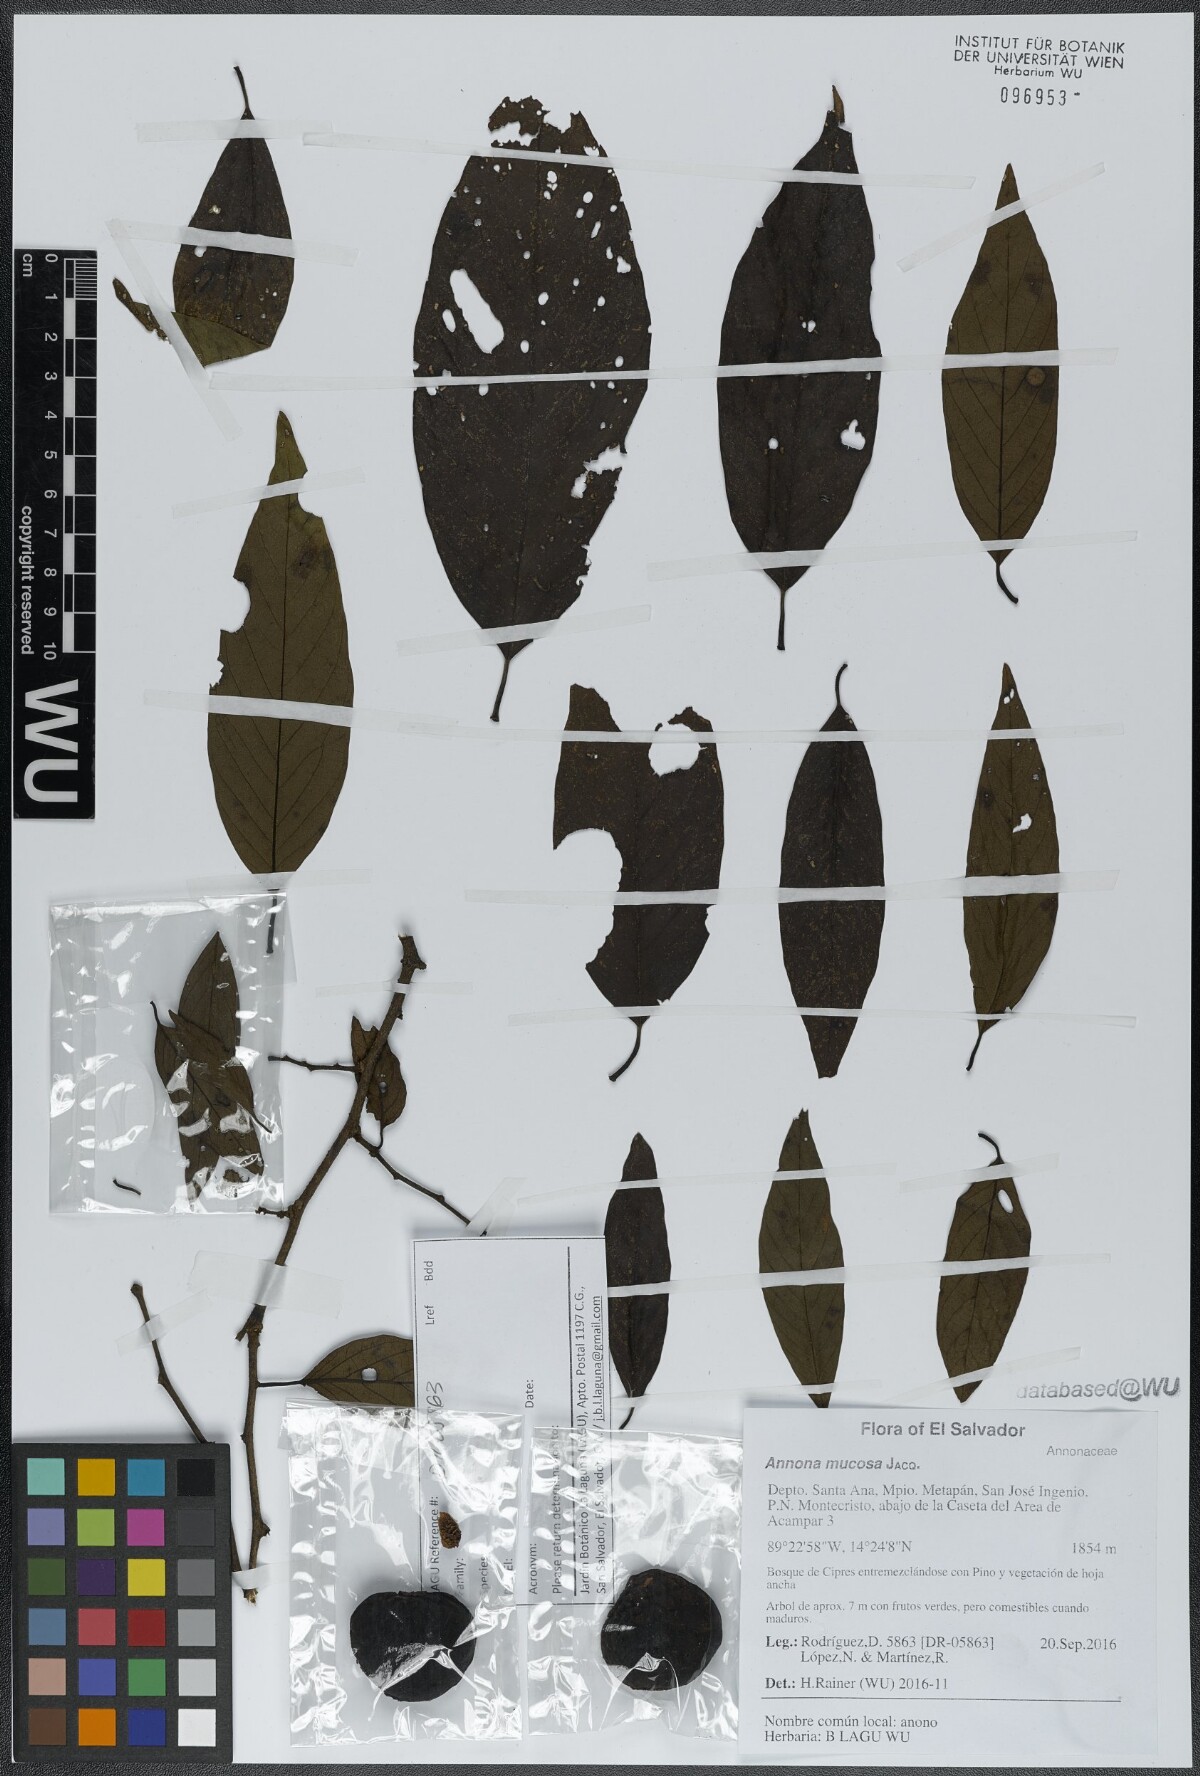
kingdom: Plantae
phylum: Tracheophyta
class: Magnoliopsida
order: Magnoliales
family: Annonaceae
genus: Annona
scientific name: Annona cherimola
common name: Cherimoya
